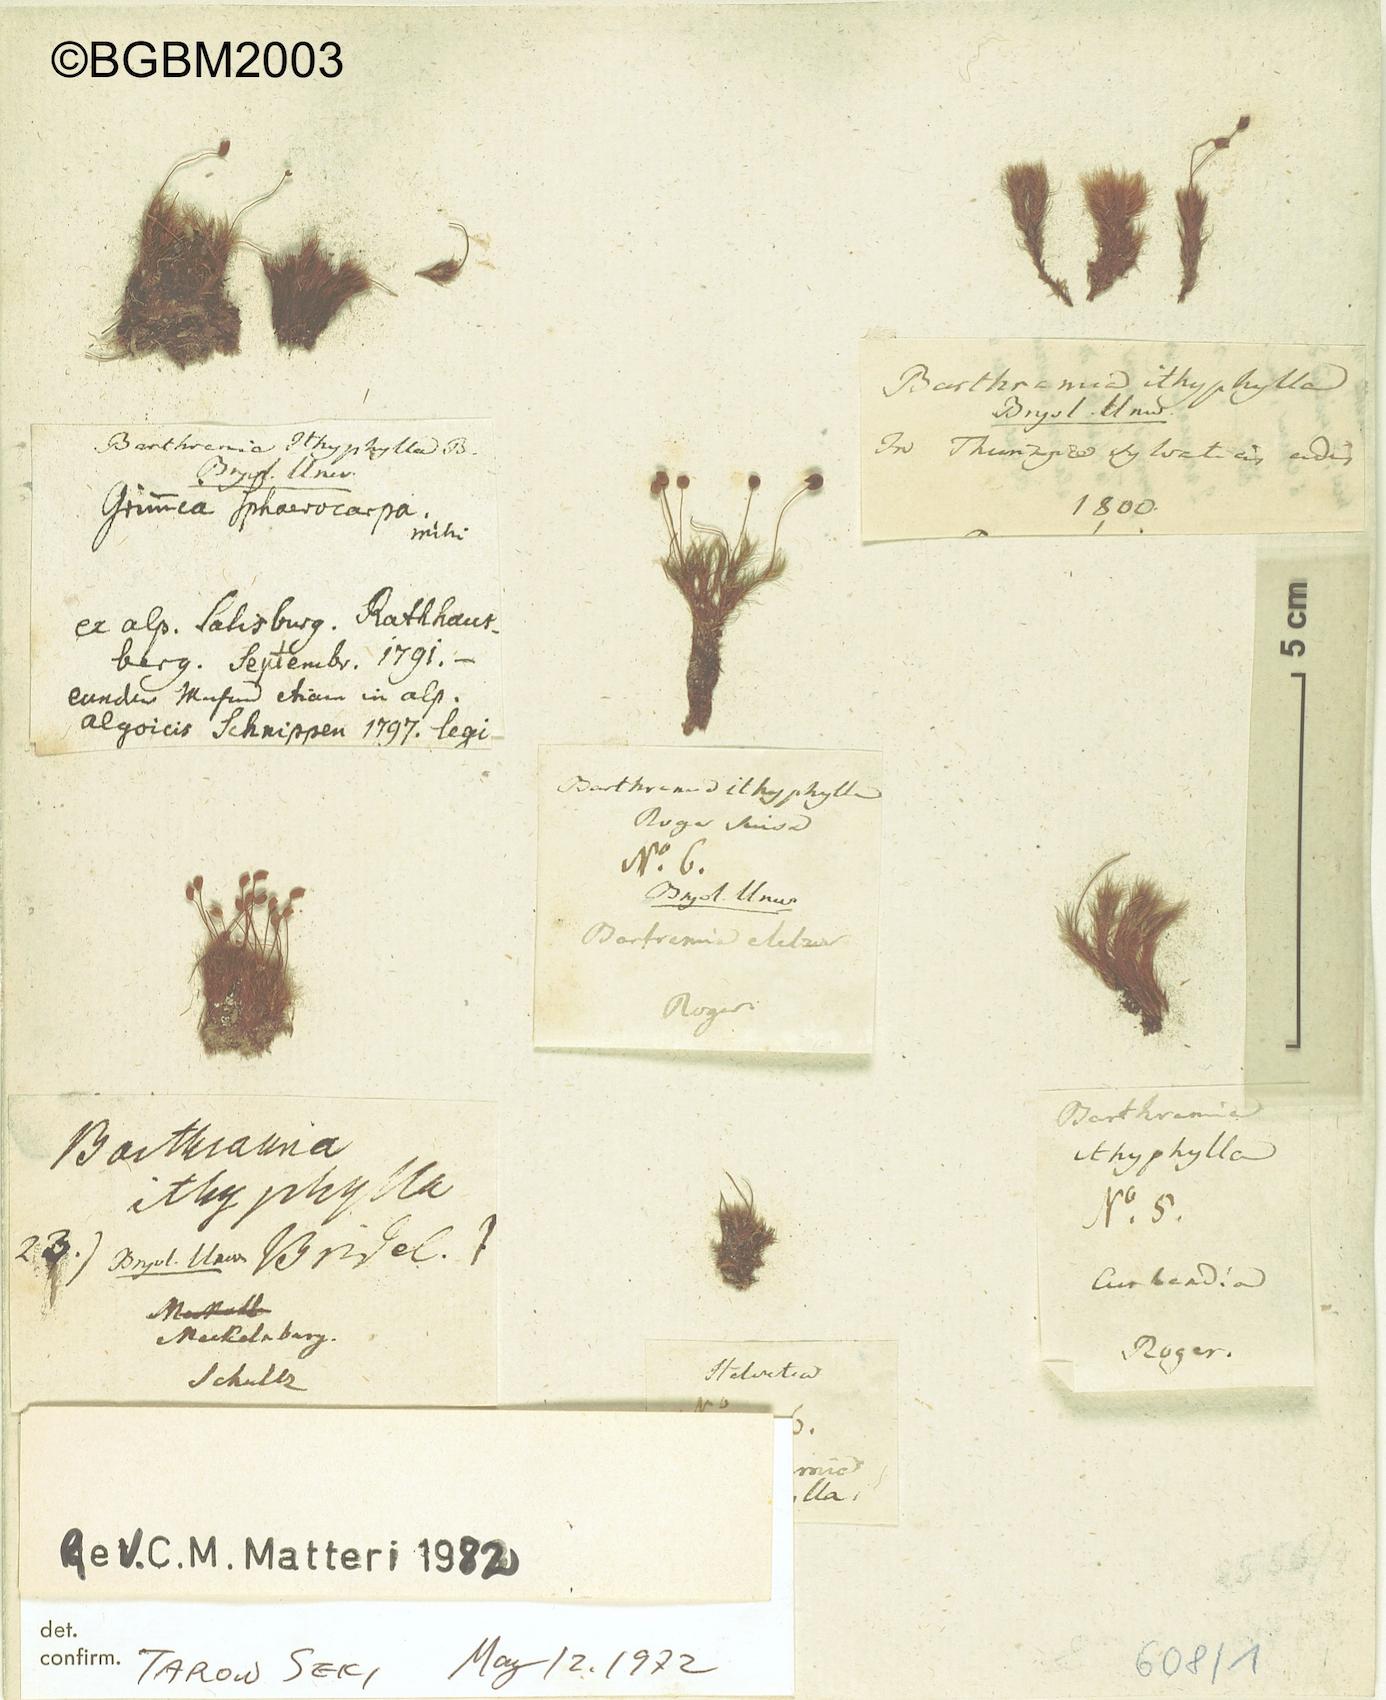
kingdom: Plantae
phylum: Bryophyta
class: Bryopsida
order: Bartramiales
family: Bartramiaceae
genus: Bartramia
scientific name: Bartramia ithyphylla
